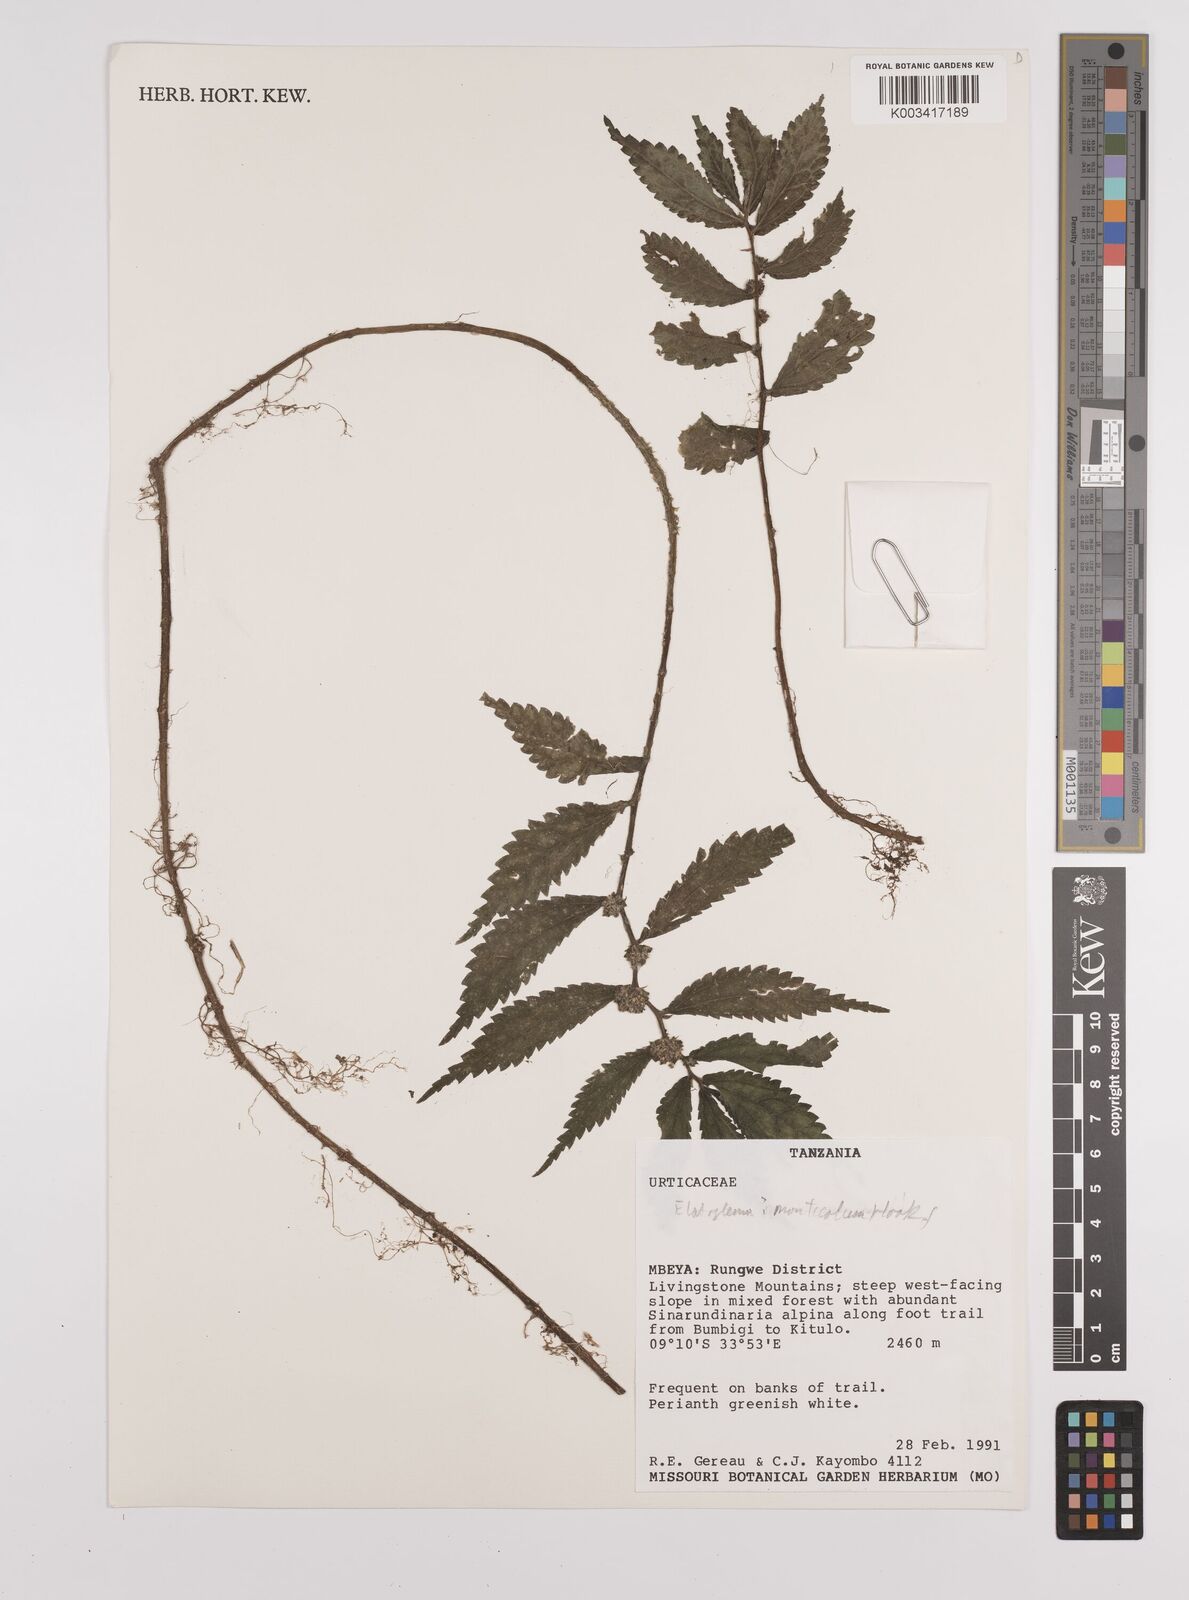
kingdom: Plantae
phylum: Tracheophyta
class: Magnoliopsida
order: Rosales
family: Urticaceae
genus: Elatostema
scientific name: Elatostema monticola
